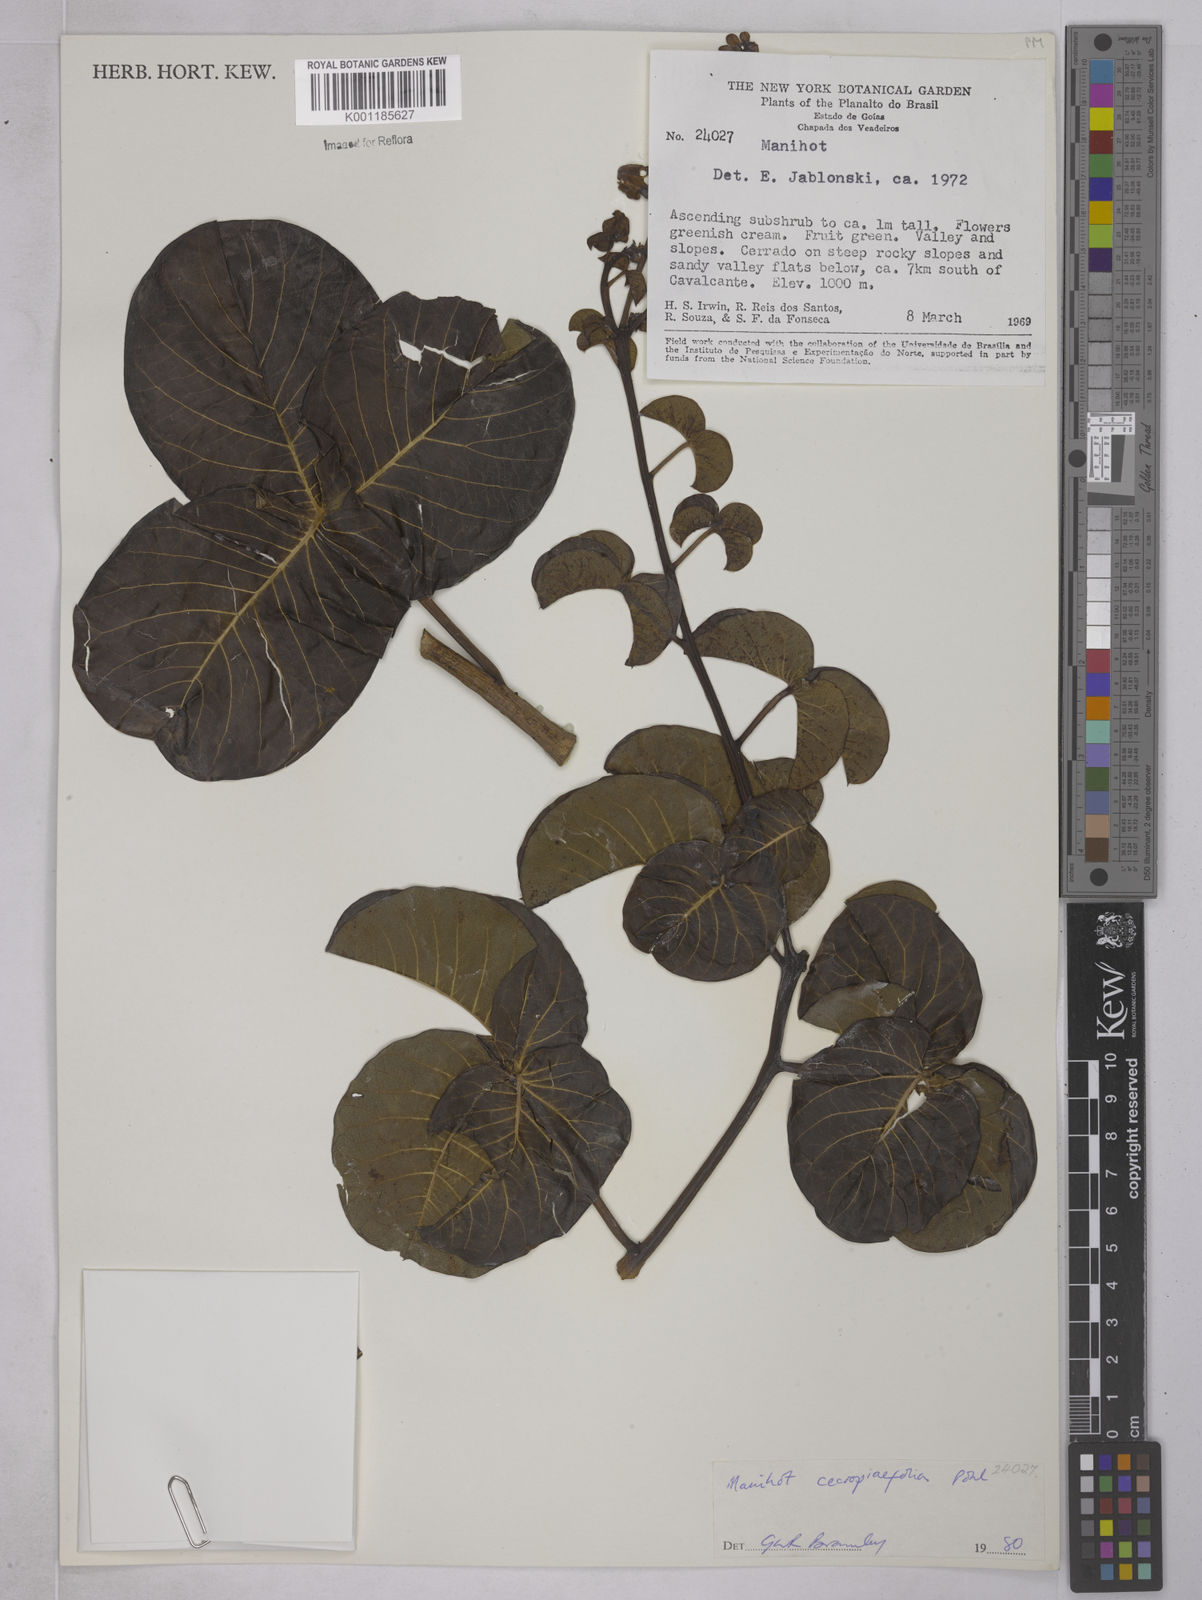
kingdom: Plantae
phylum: Tracheophyta
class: Magnoliopsida
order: Malpighiales
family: Euphorbiaceae
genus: Manihot
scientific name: Manihot cecropiifolia
